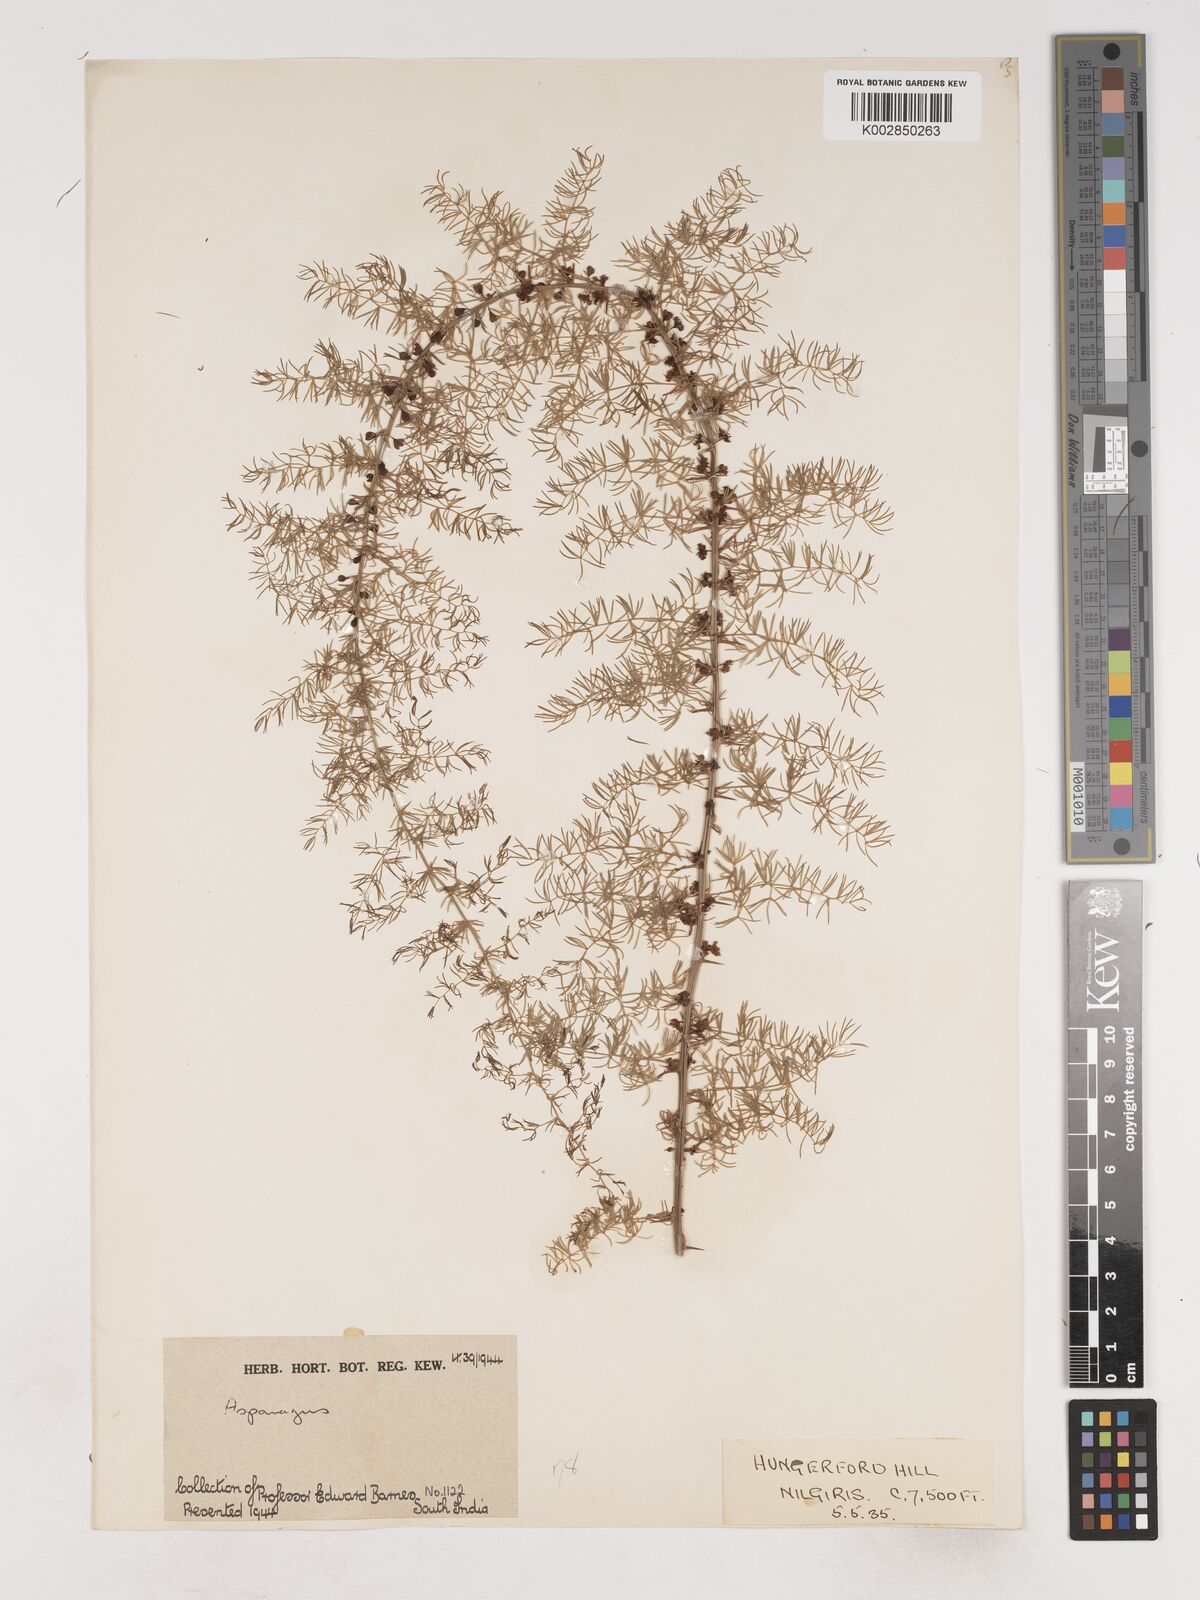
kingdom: Plantae
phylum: Tracheophyta
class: Liliopsida
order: Asparagales
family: Asparagaceae
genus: Asparagus
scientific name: Asparagus
